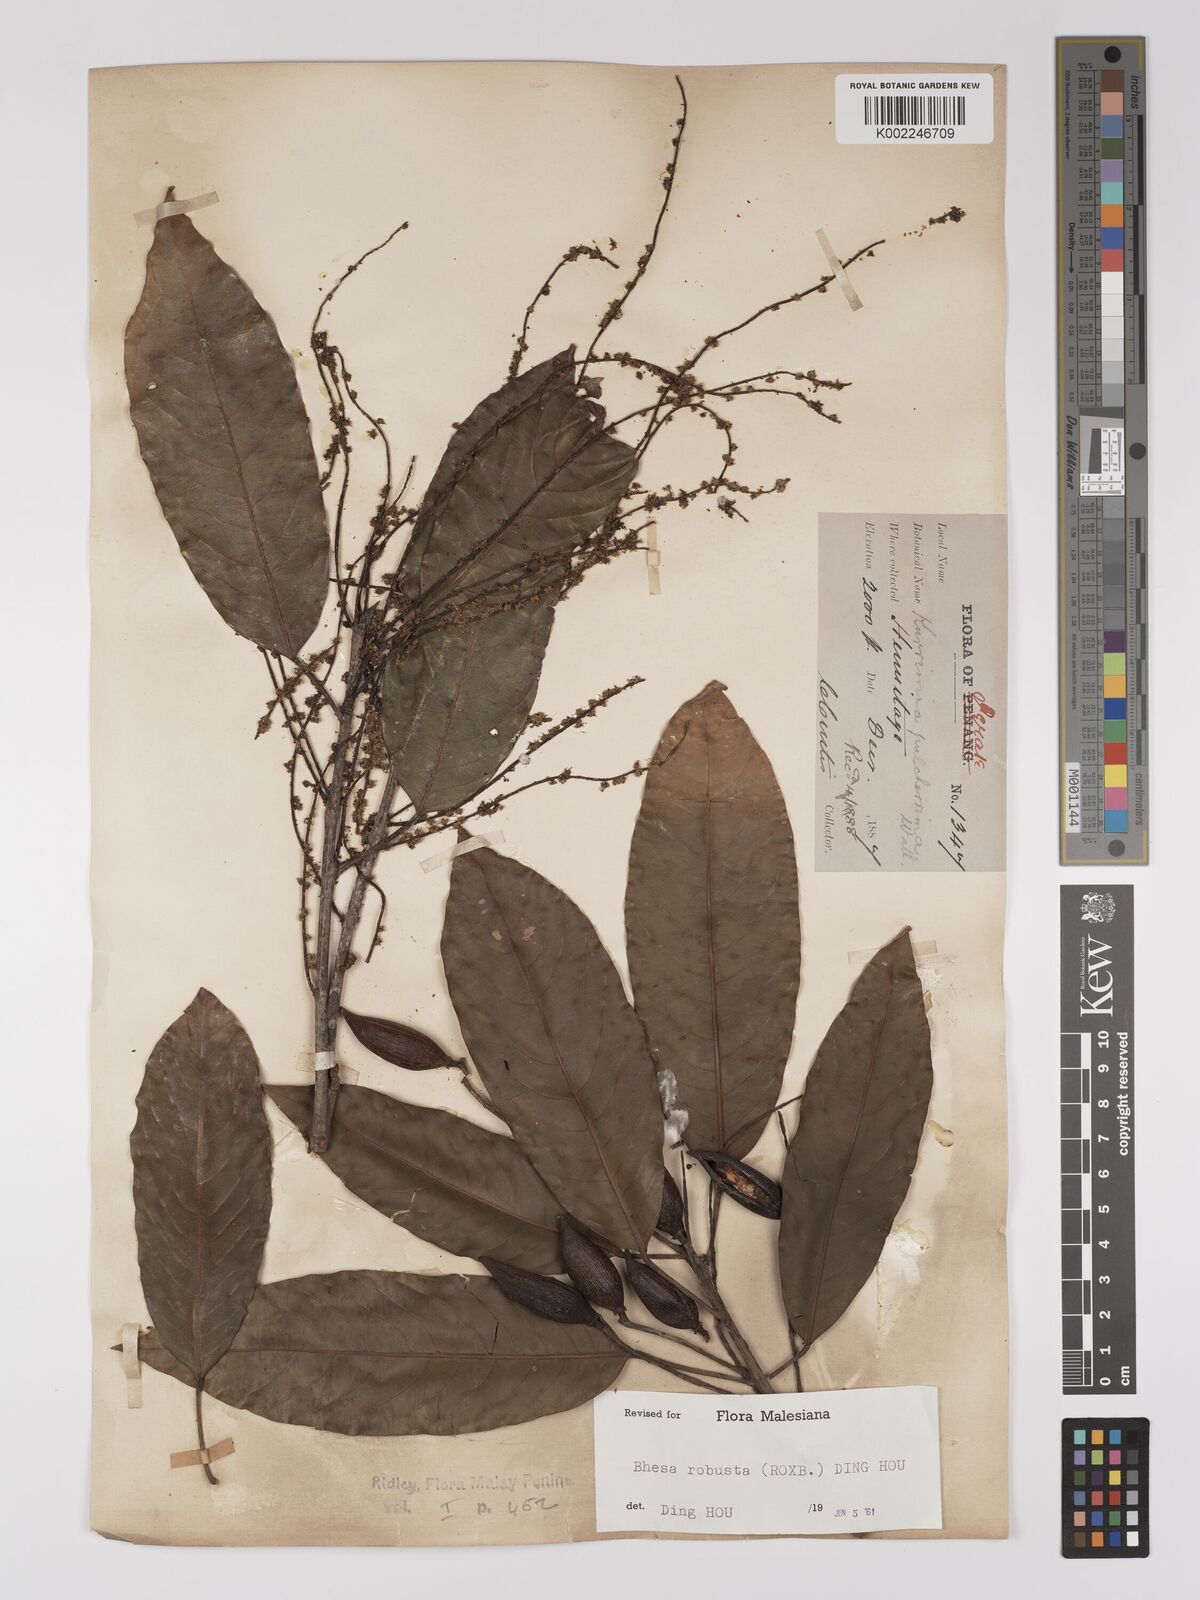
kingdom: Plantae
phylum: Tracheophyta
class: Magnoliopsida
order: Malpighiales
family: Centroplacaceae
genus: Bhesa
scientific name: Bhesa robusta
